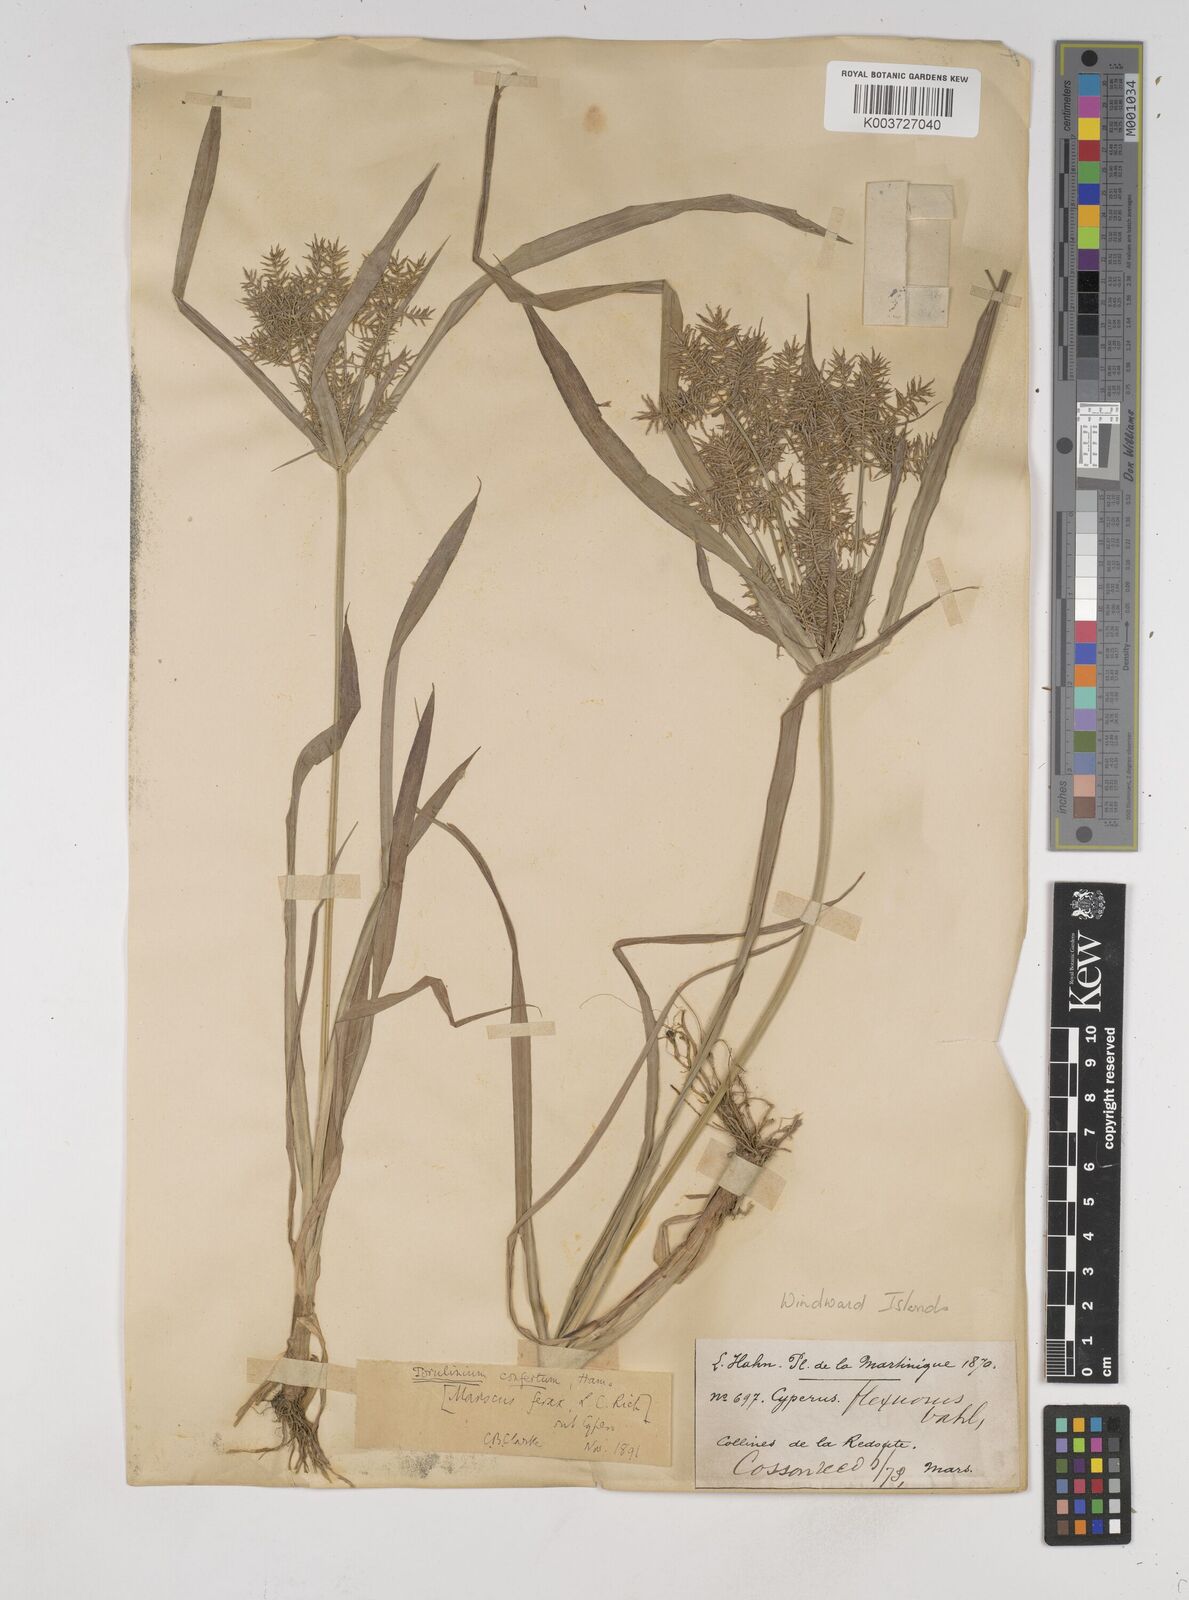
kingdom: Plantae
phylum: Tracheophyta
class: Liliopsida
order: Poales
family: Cyperaceae
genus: Cyperus
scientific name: Cyperus odoratus
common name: Fragrant flatsedge
